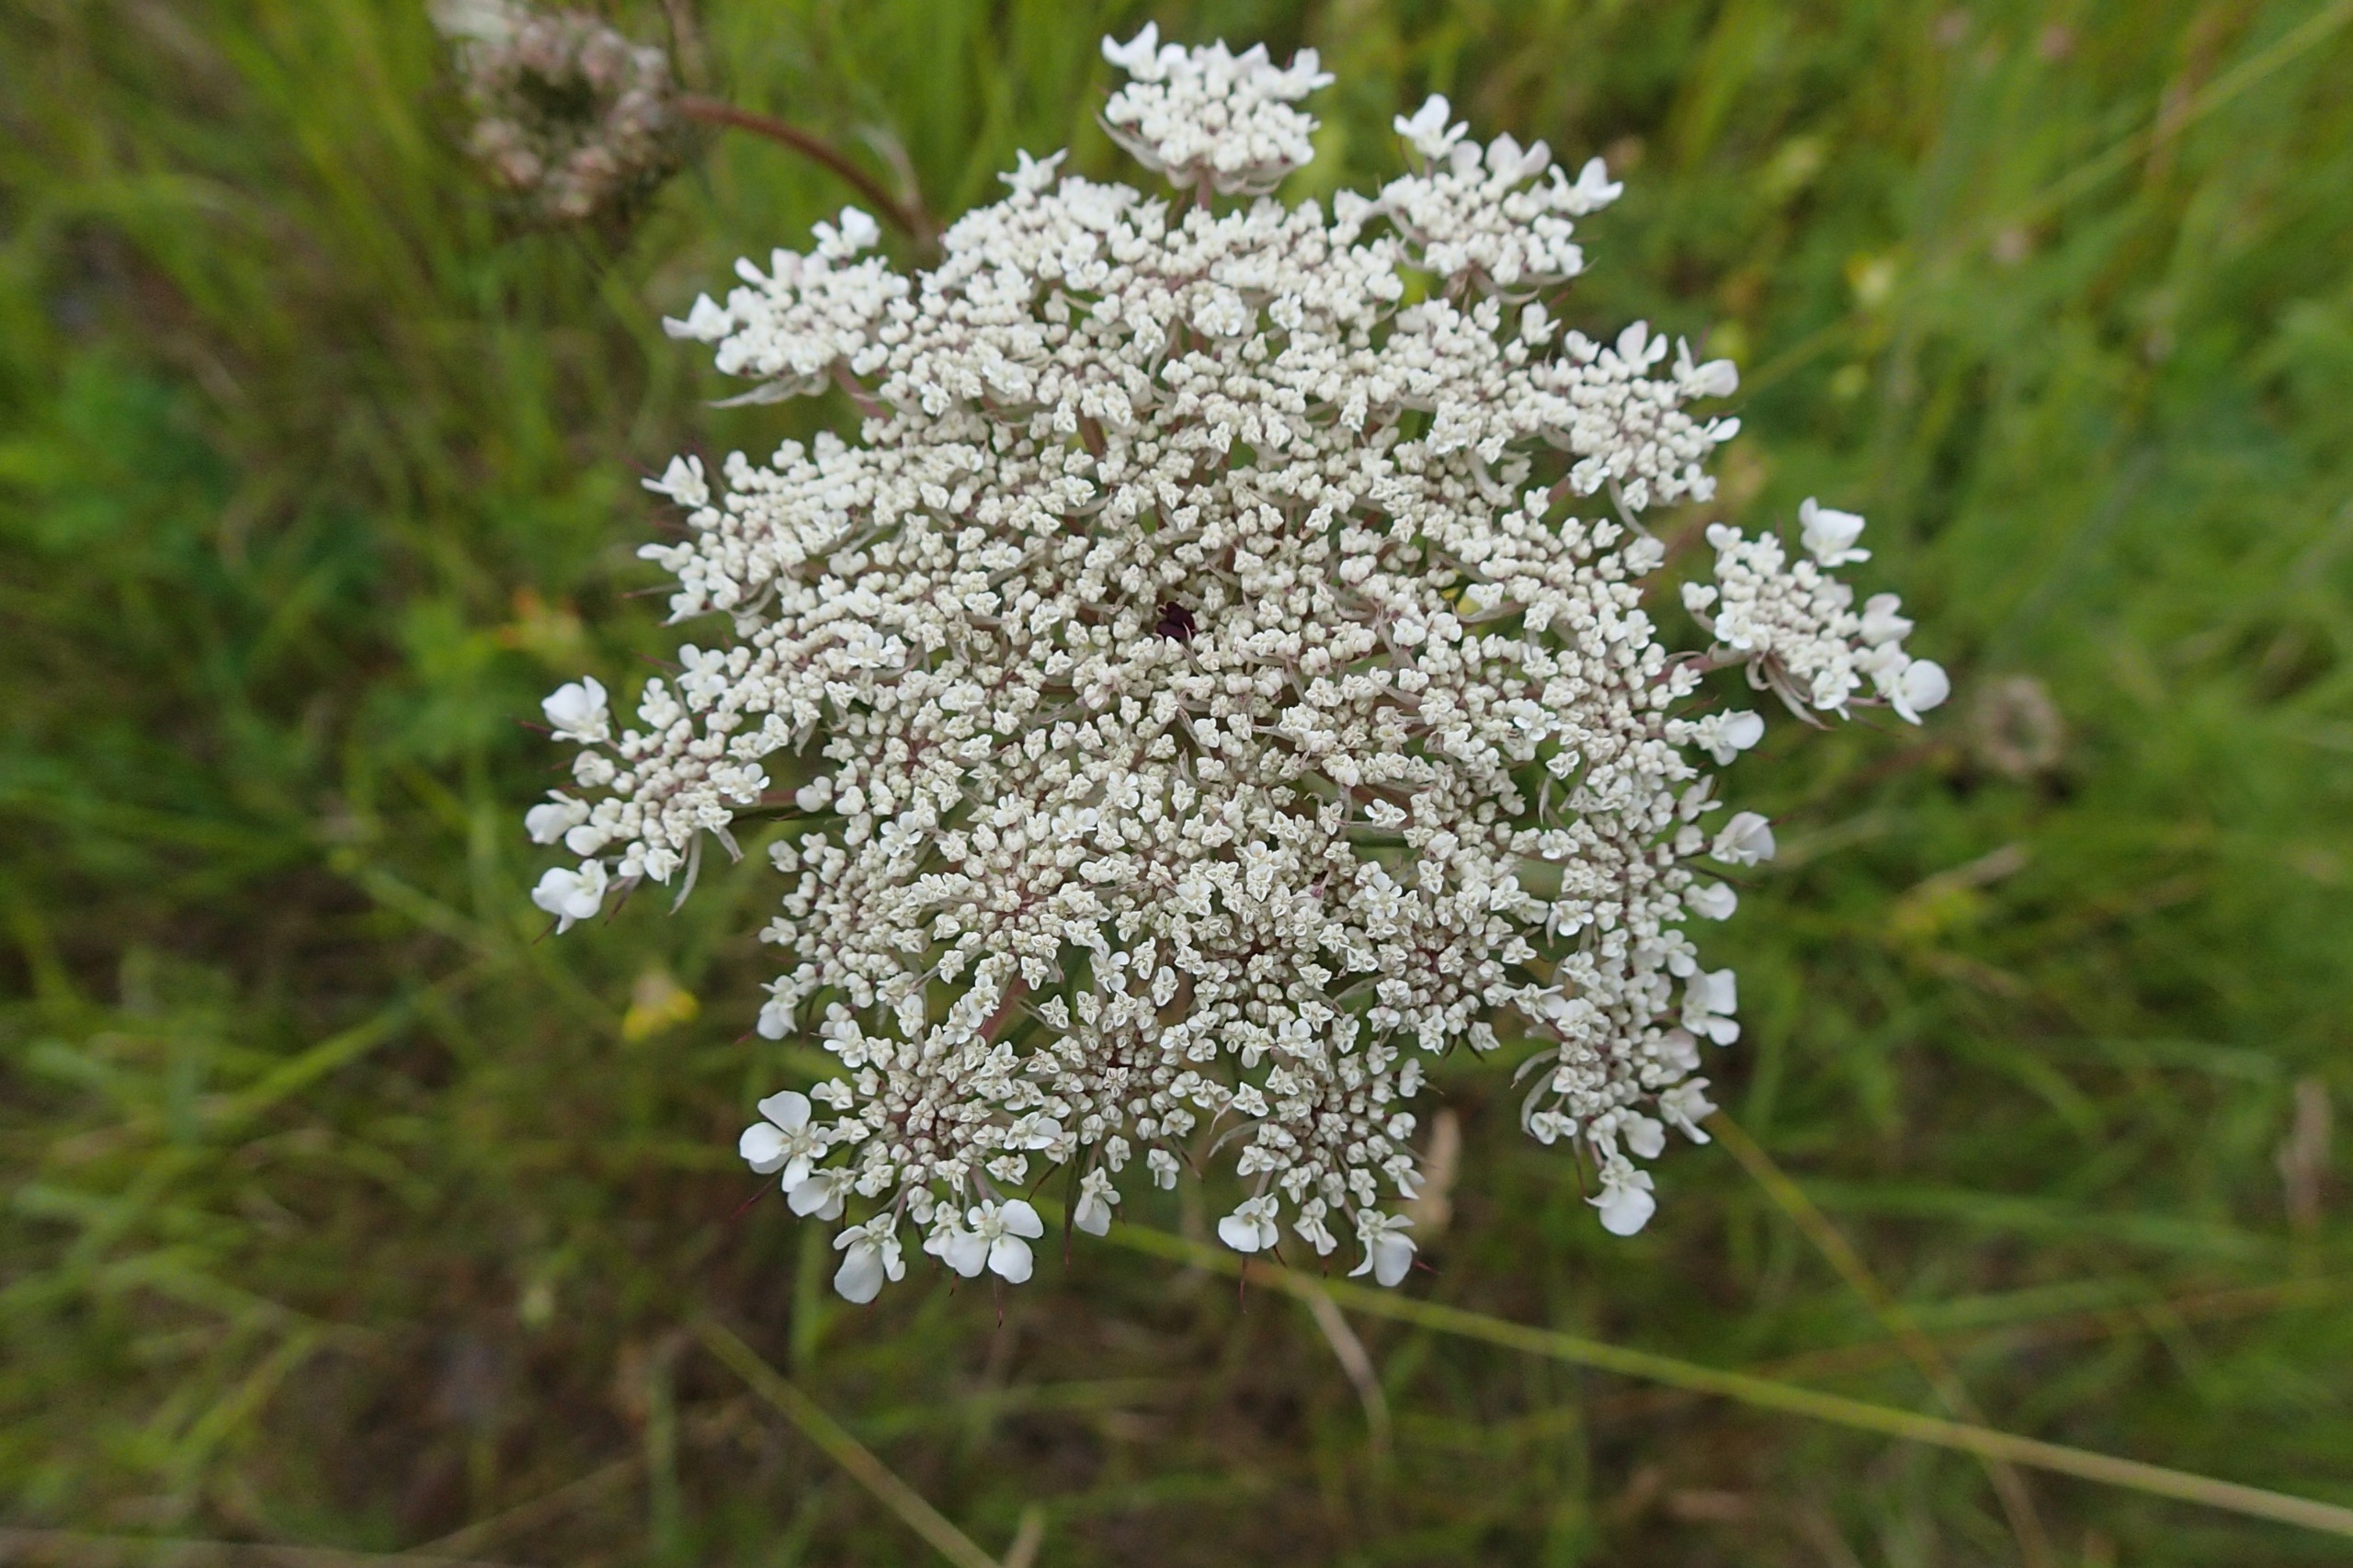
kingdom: Plantae
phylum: Tracheophyta
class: Magnoliopsida
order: Apiales
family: Apiaceae
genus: Daucus
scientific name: Daucus carota
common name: Gulerod
